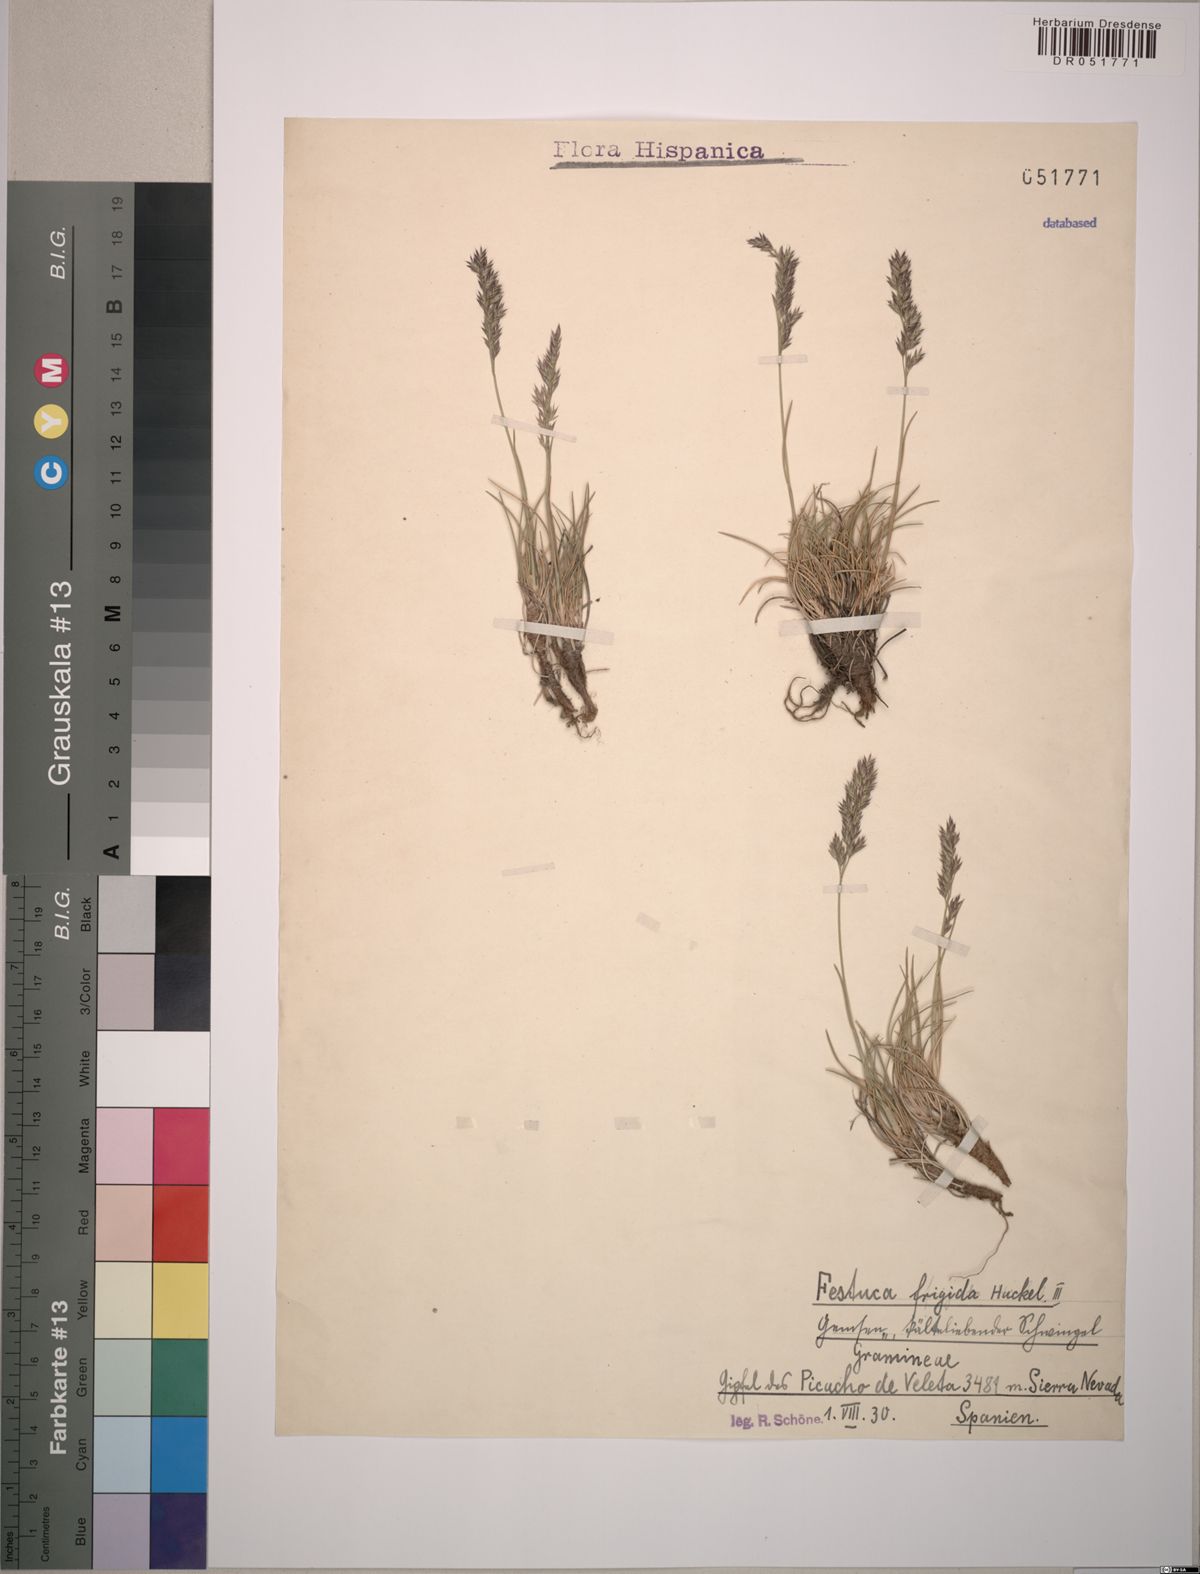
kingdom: Plantae
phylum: Tracheophyta
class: Liliopsida
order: Poales
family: Poaceae
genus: Festuca
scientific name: Festuca frigida
